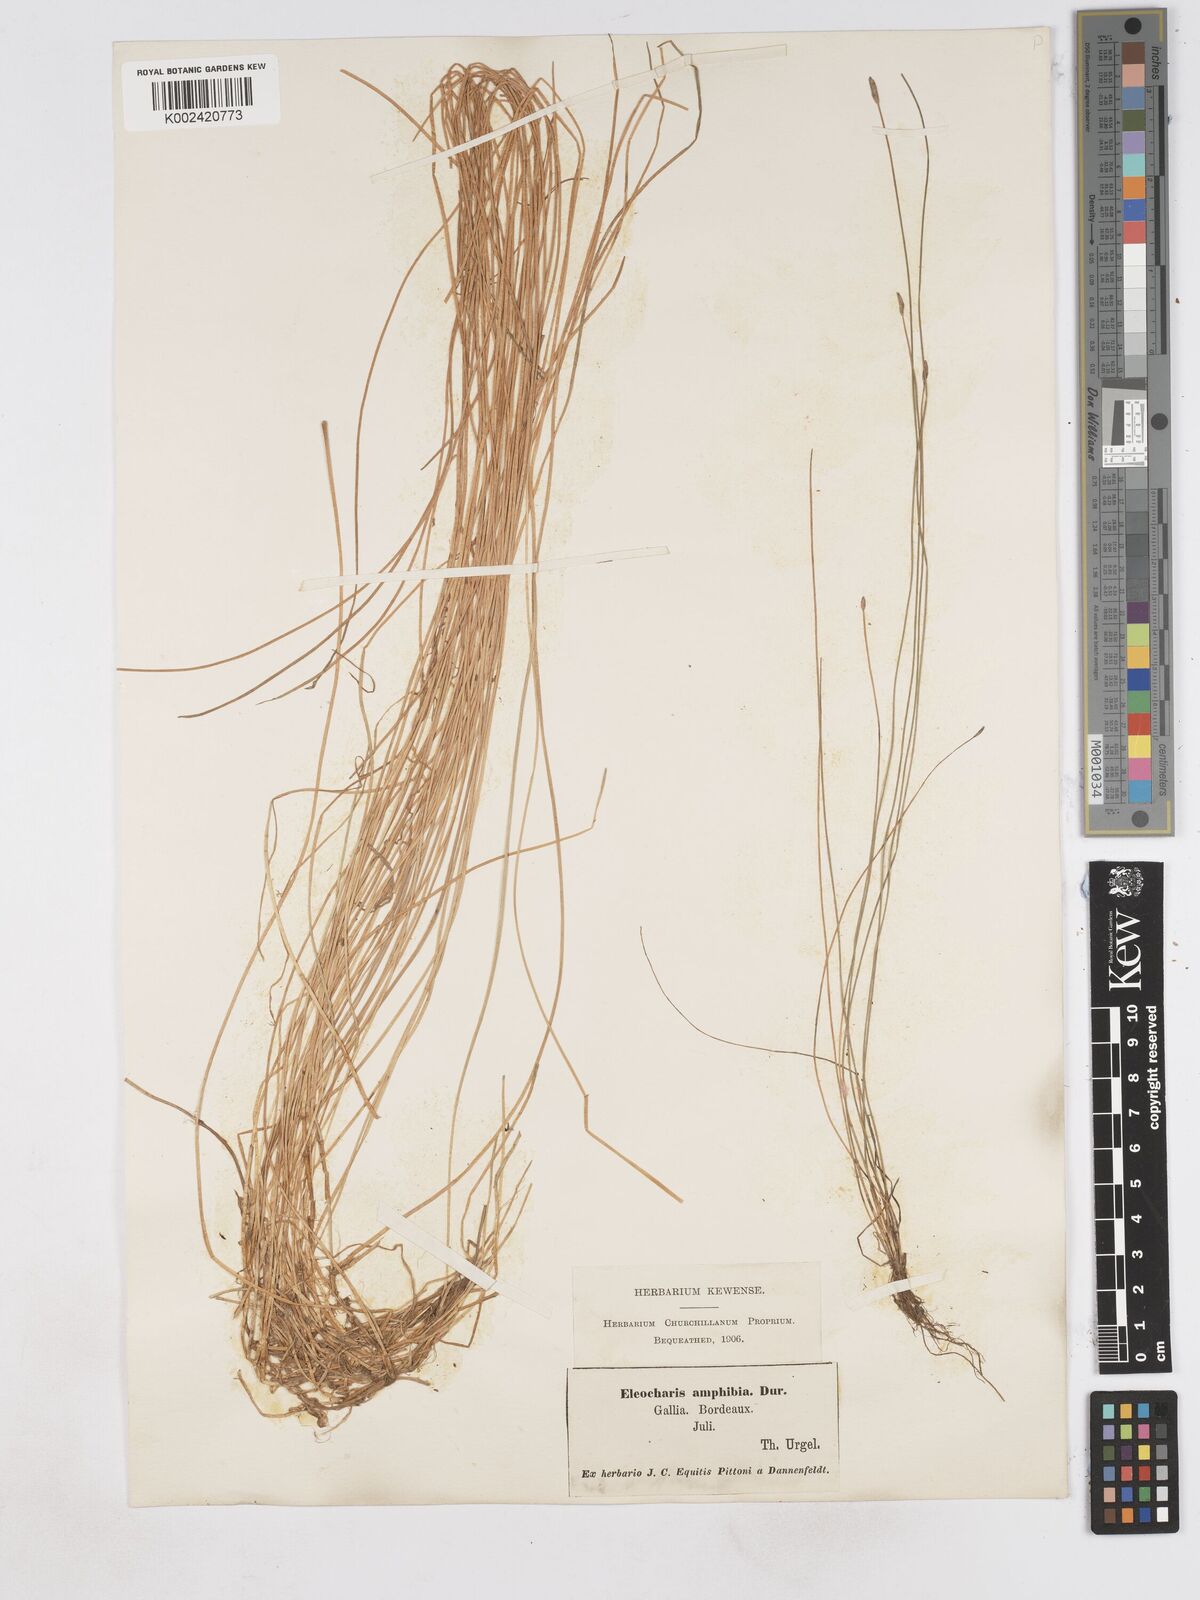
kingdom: Plantae
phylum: Tracheophyta
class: Liliopsida
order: Poales
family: Cyperaceae
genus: Eleocharis
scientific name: Eleocharis bonariensis
